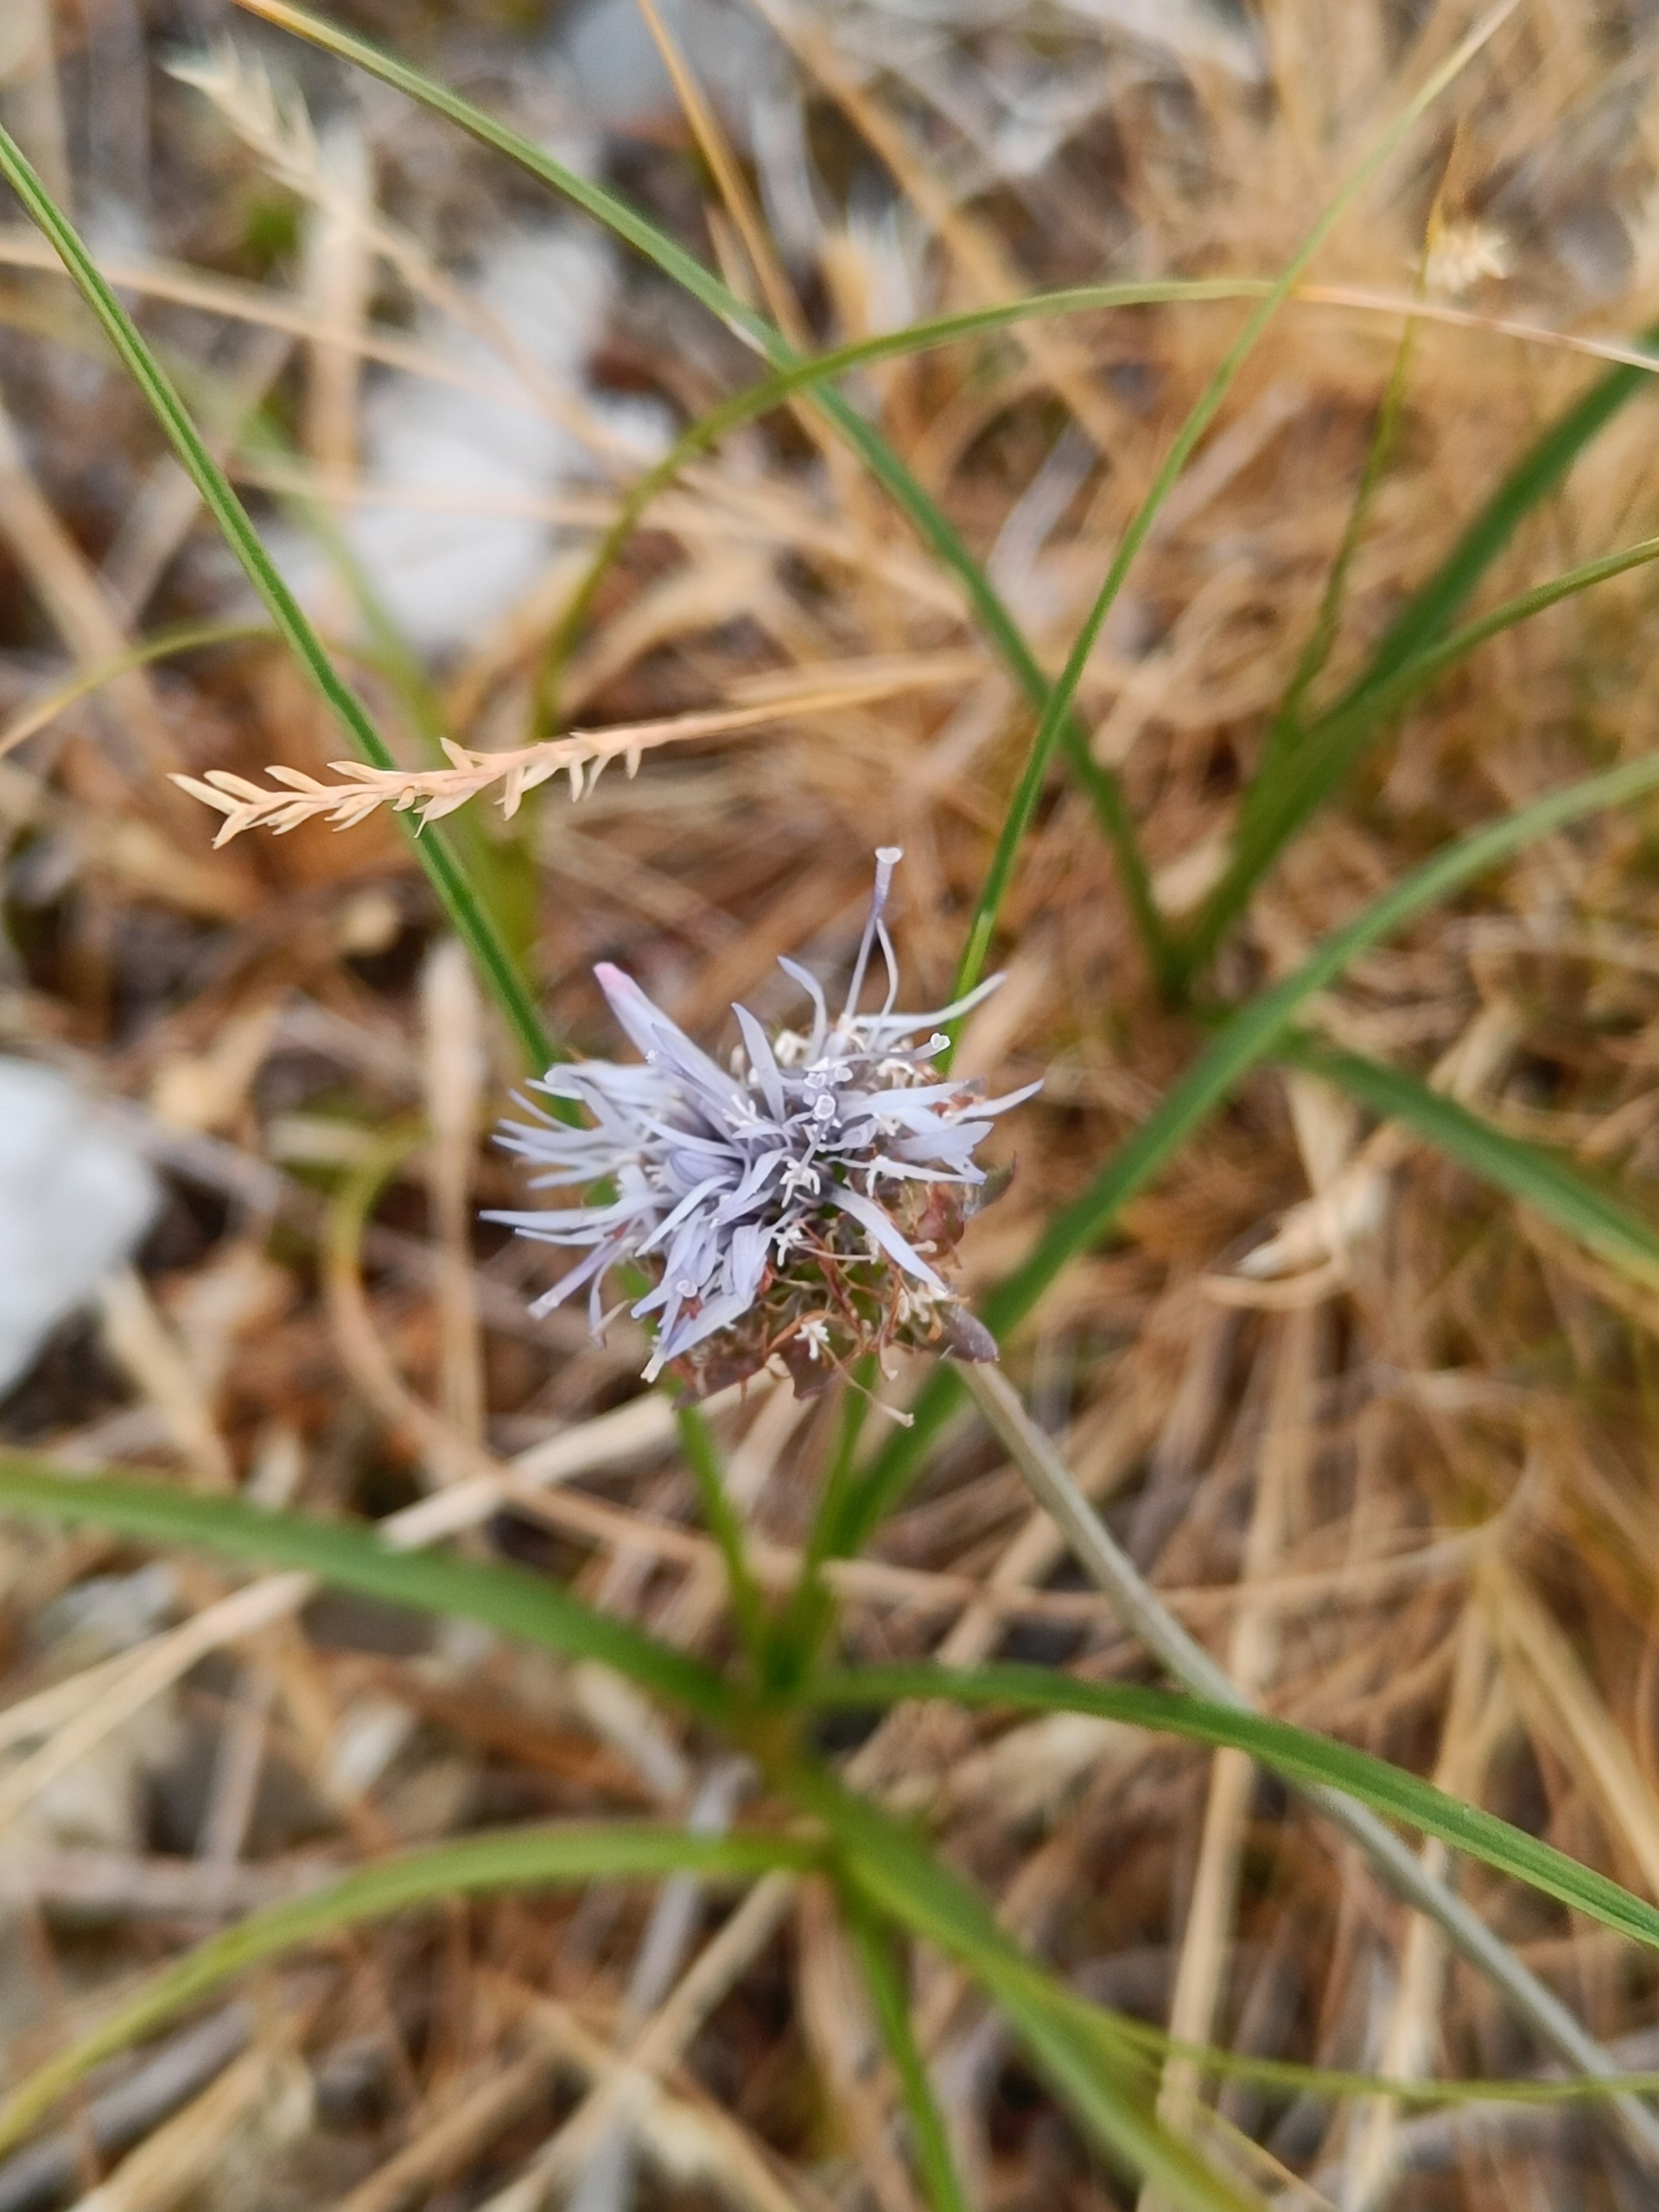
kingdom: Plantae
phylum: Tracheophyta
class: Magnoliopsida
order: Asterales
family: Campanulaceae
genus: Jasione
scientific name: Jasione montana
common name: Blåmunke
